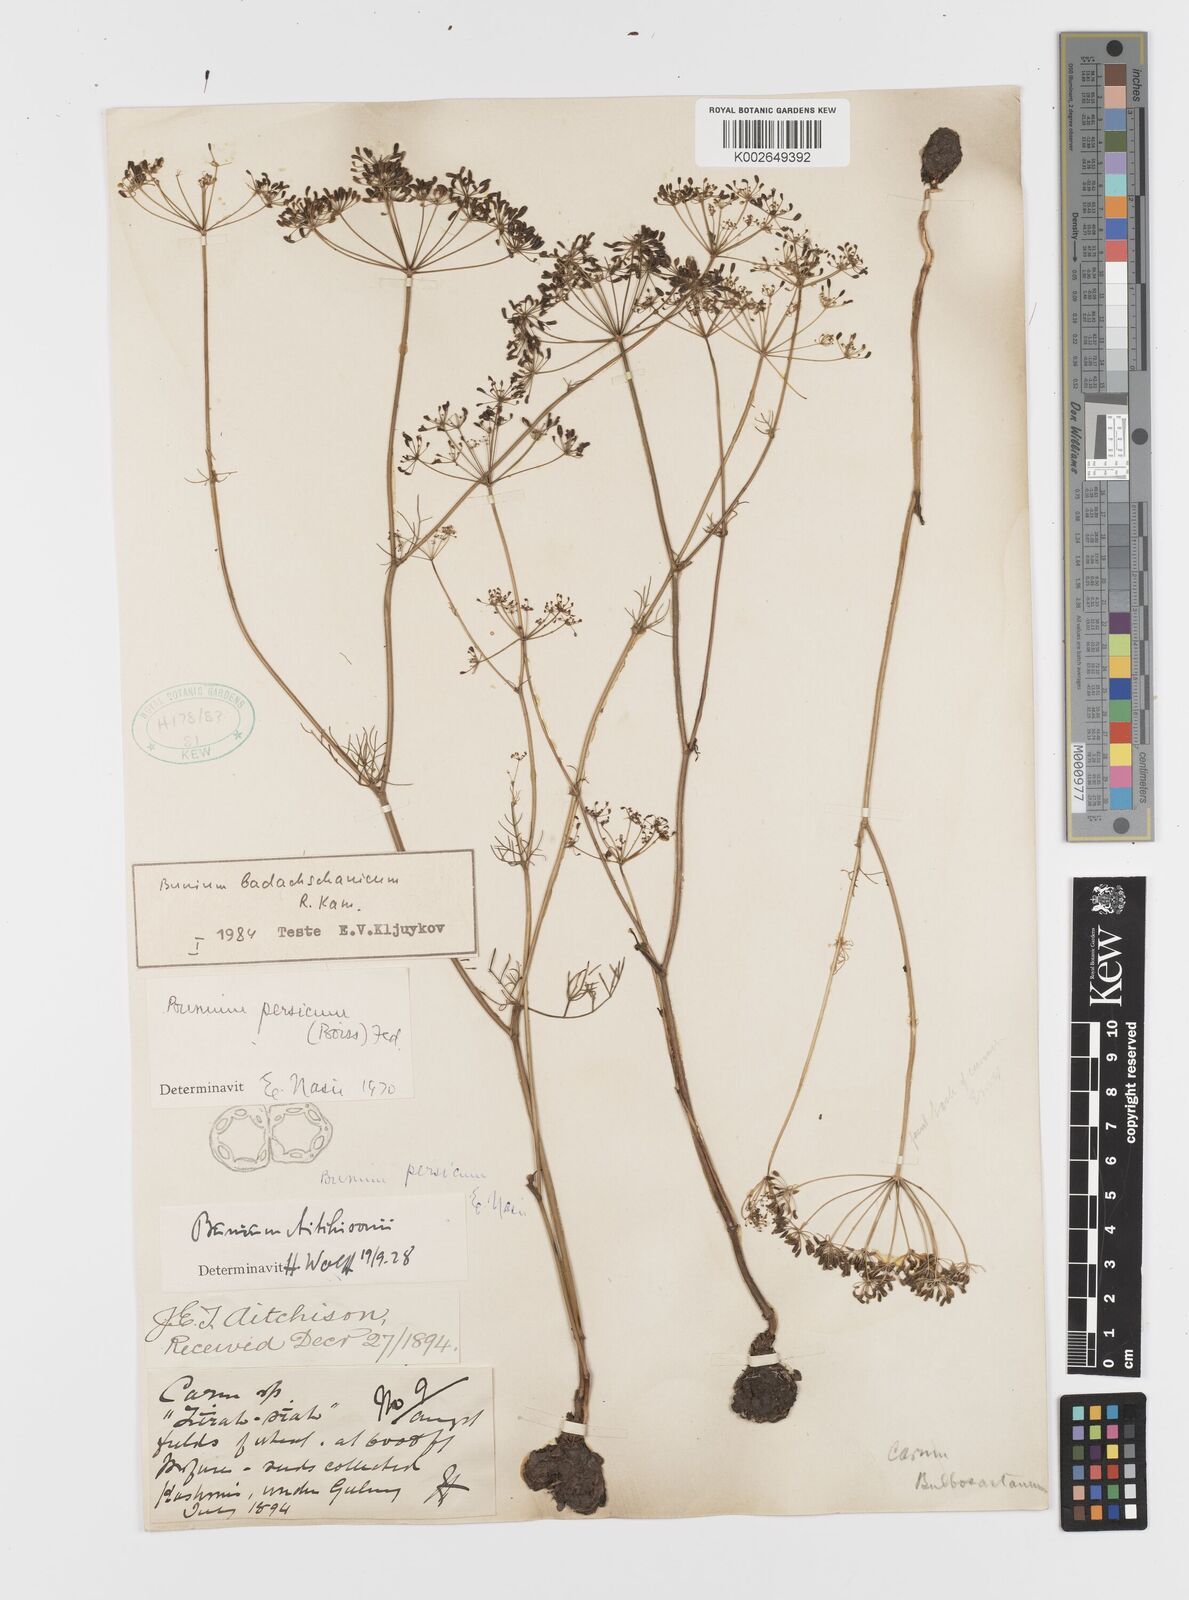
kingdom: Plantae
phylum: Tracheophyta
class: Magnoliopsida
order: Apiales
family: Apiaceae
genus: Elwendia
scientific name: Elwendia badachschanica
